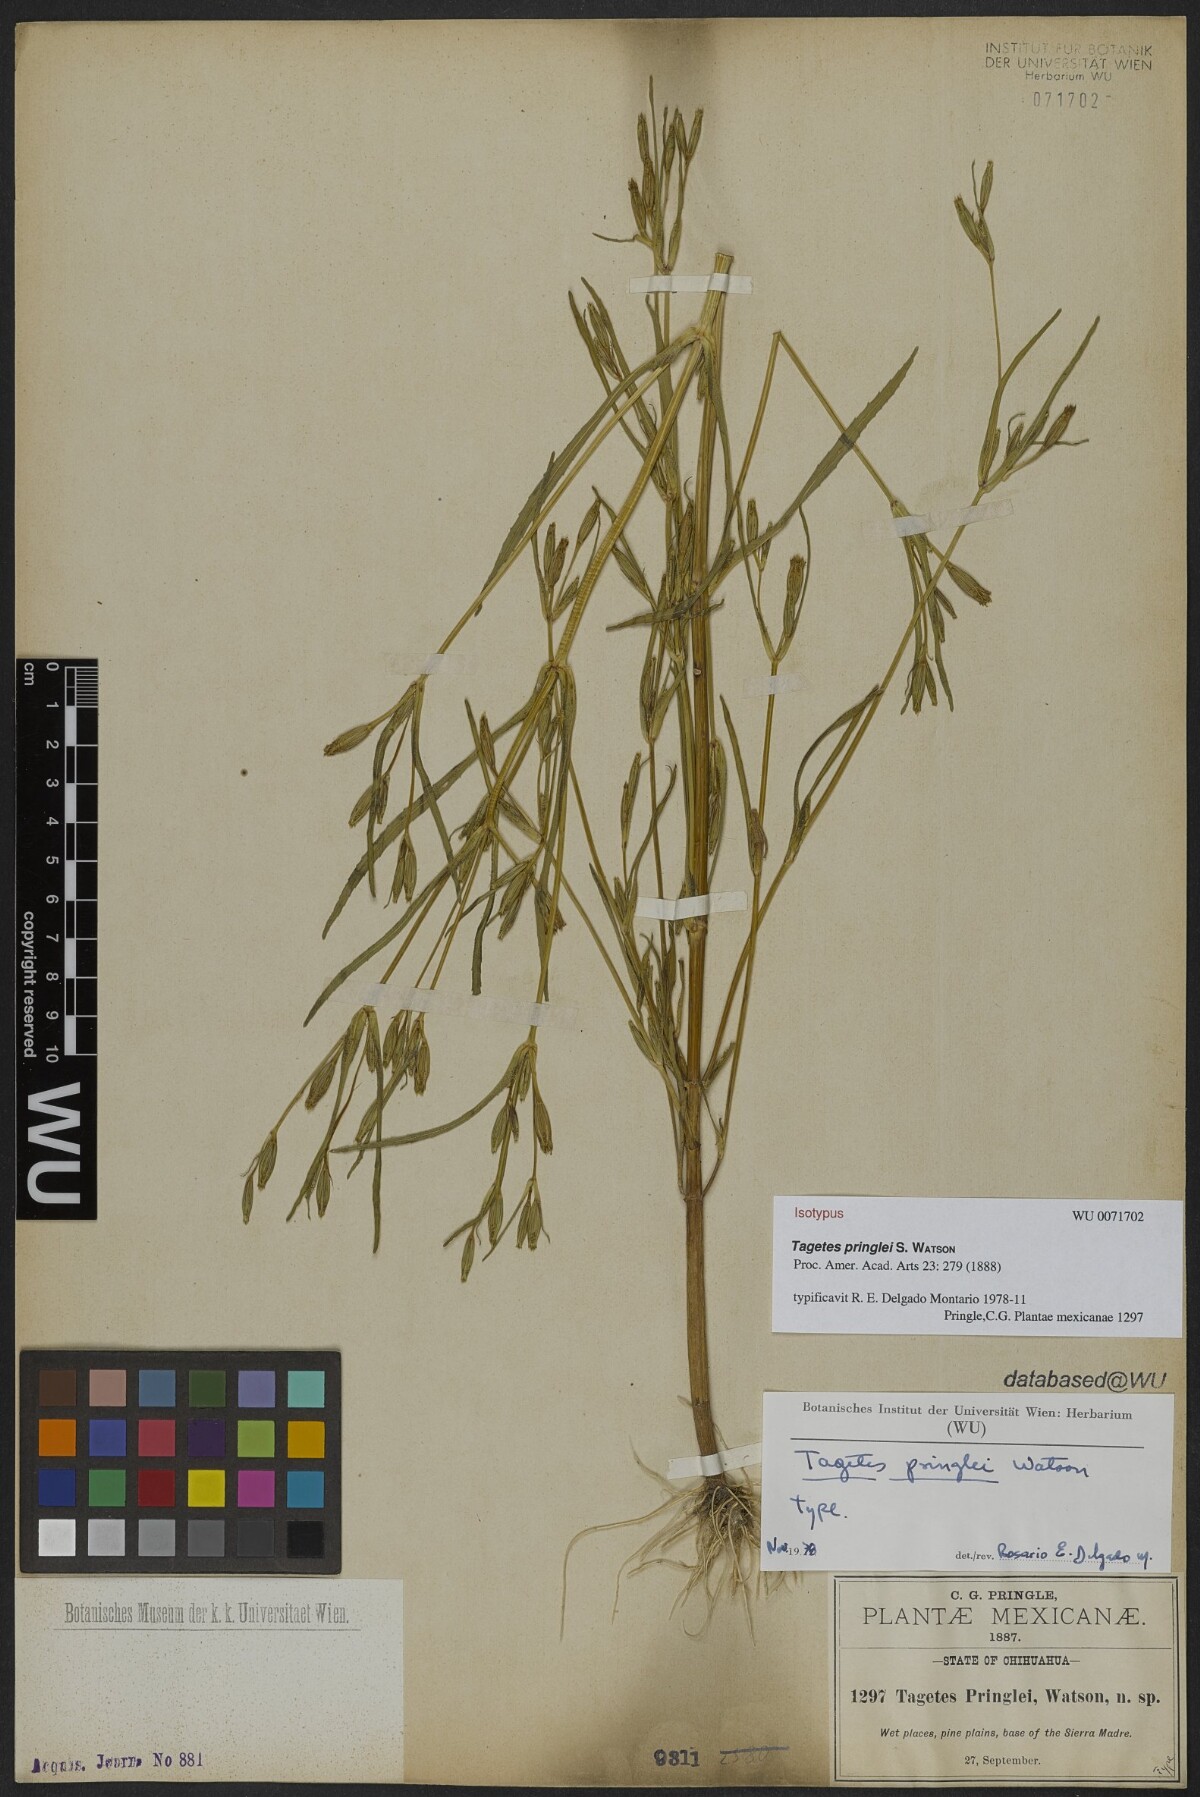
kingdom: Plantae
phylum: Tracheophyta
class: Magnoliopsida
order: Asterales
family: Asteraceae
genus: Tagetes
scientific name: Tagetes pringlei
